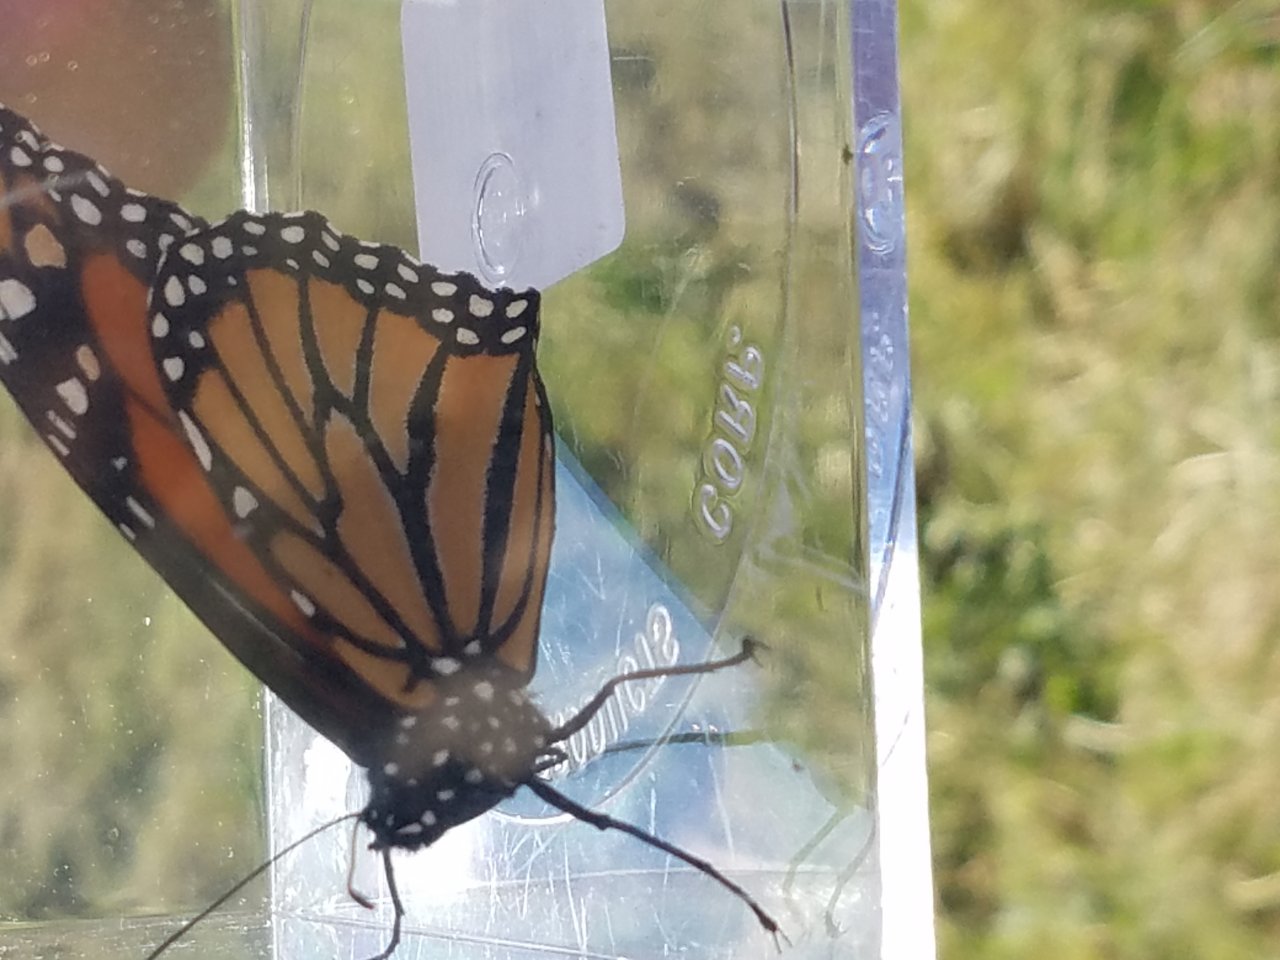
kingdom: Animalia
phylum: Arthropoda
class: Insecta
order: Lepidoptera
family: Nymphalidae
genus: Danaus
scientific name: Danaus plexippus
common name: Monarch
